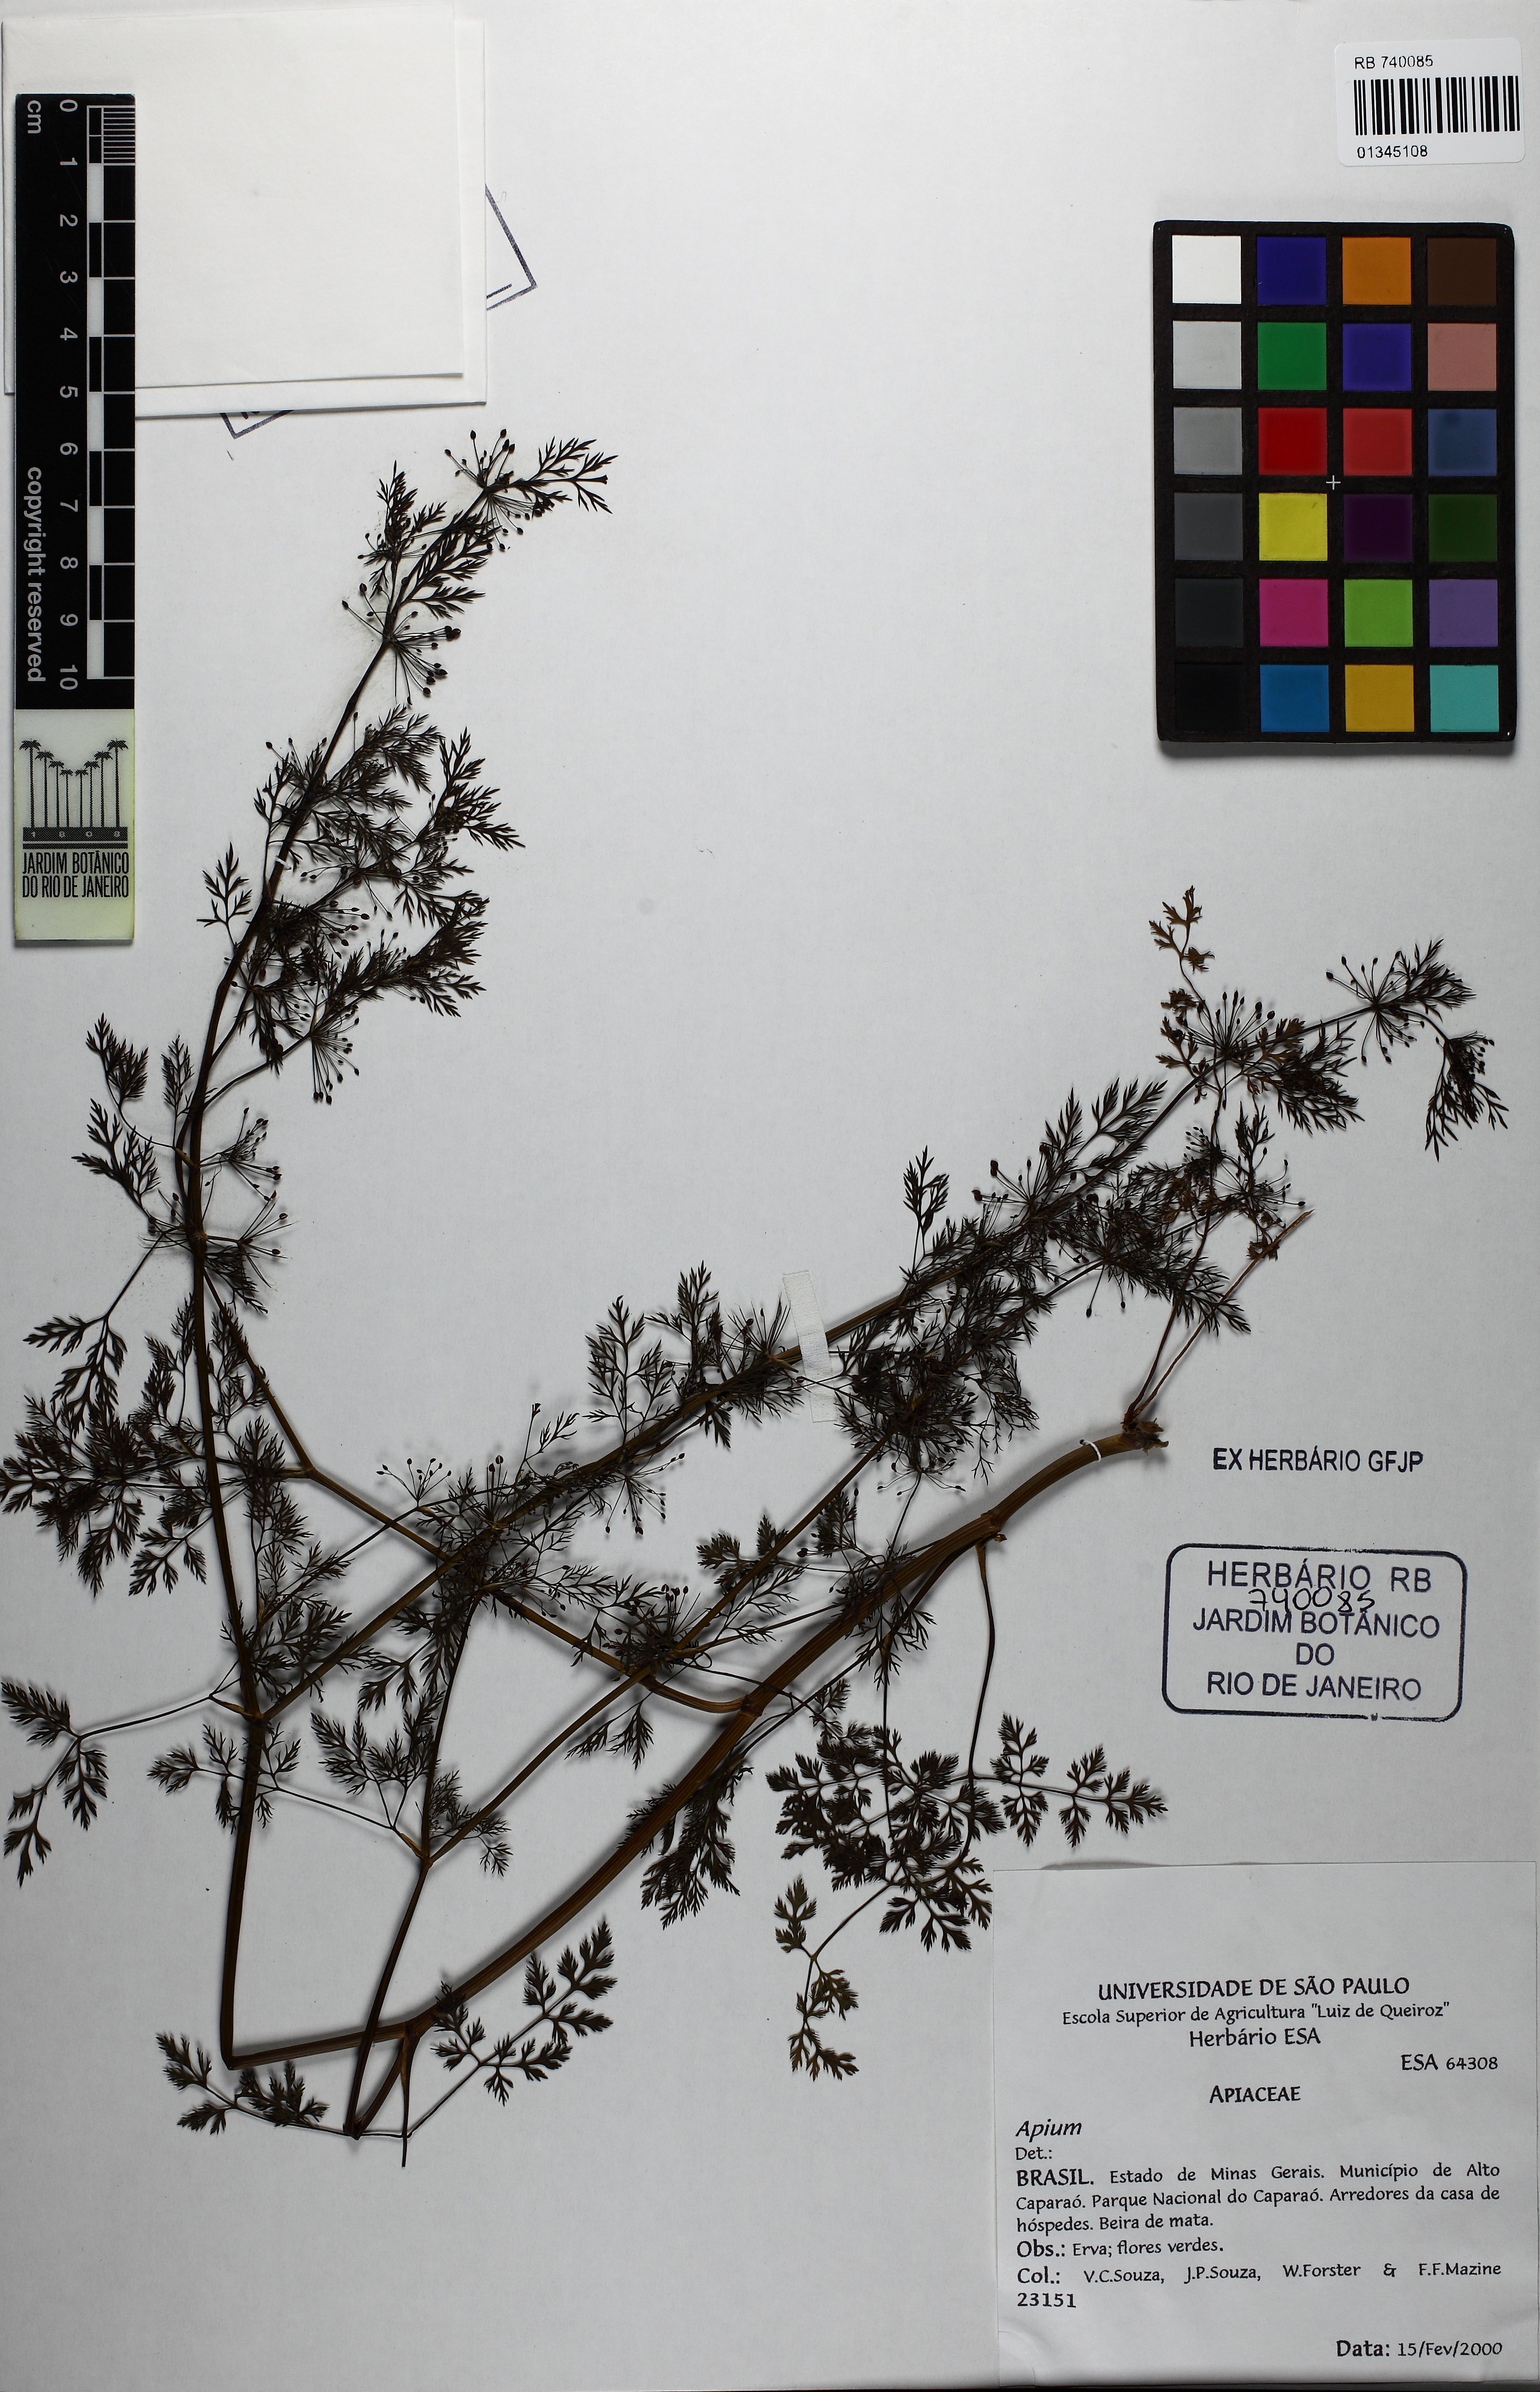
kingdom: Plantae
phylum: Tracheophyta
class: Magnoliopsida
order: Apiales
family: Apiaceae
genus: Apium
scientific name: Apium
